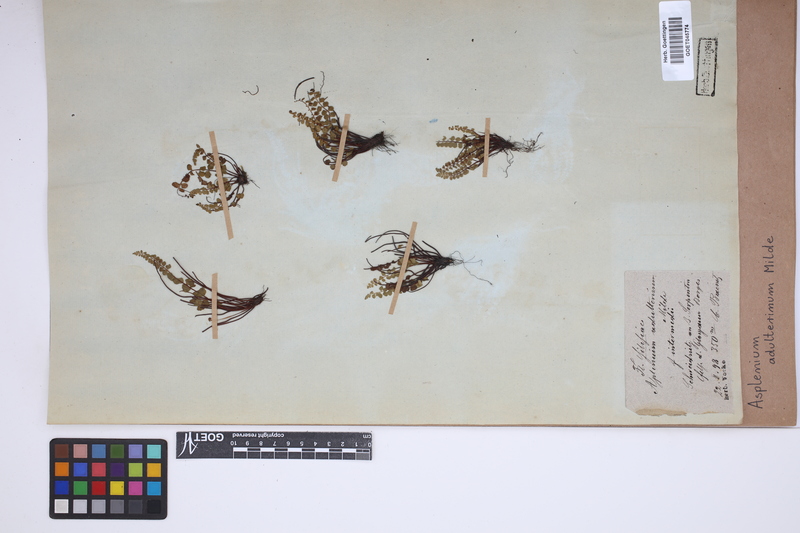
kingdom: Plantae
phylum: Tracheophyta
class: Polypodiopsida
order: Polypodiales
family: Aspleniaceae
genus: Asplenium
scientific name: Asplenium adulterinum
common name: Adulterated spleenwort
